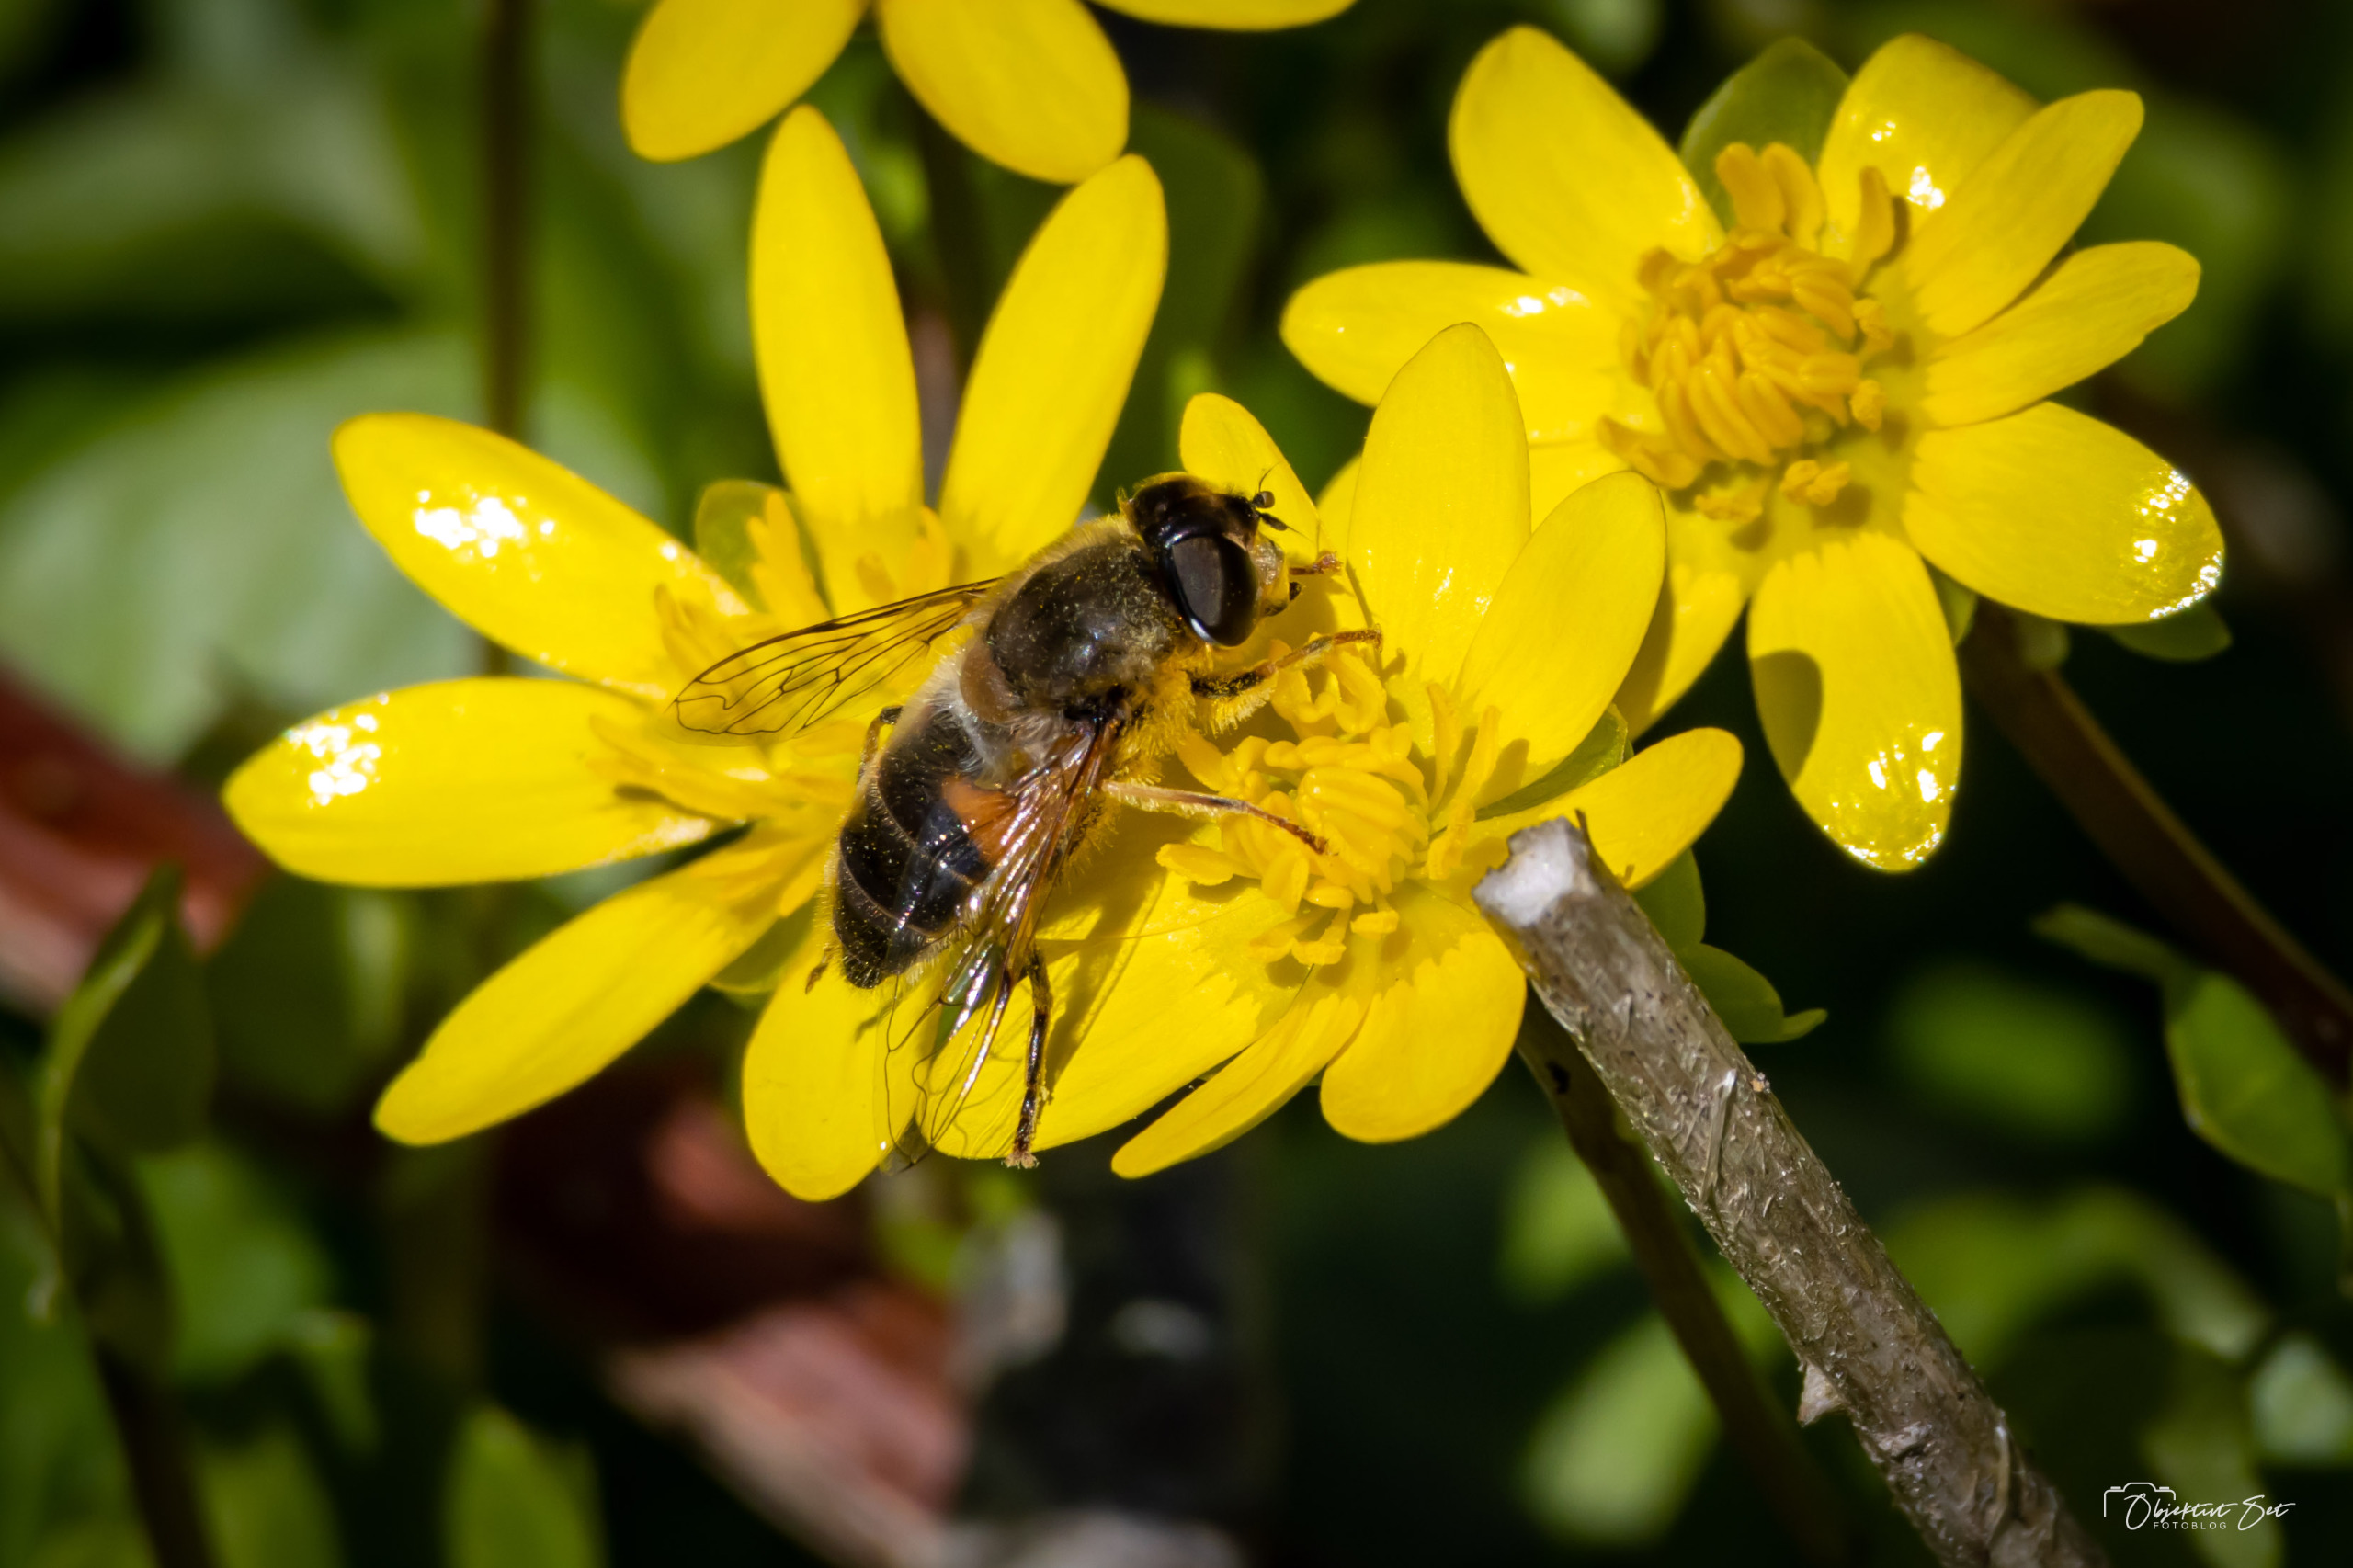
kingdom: Animalia
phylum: Arthropoda
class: Insecta
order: Diptera
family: Syrphidae
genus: Eristalis
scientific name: Eristalis pertinax
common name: Gulfodet dyndflue
